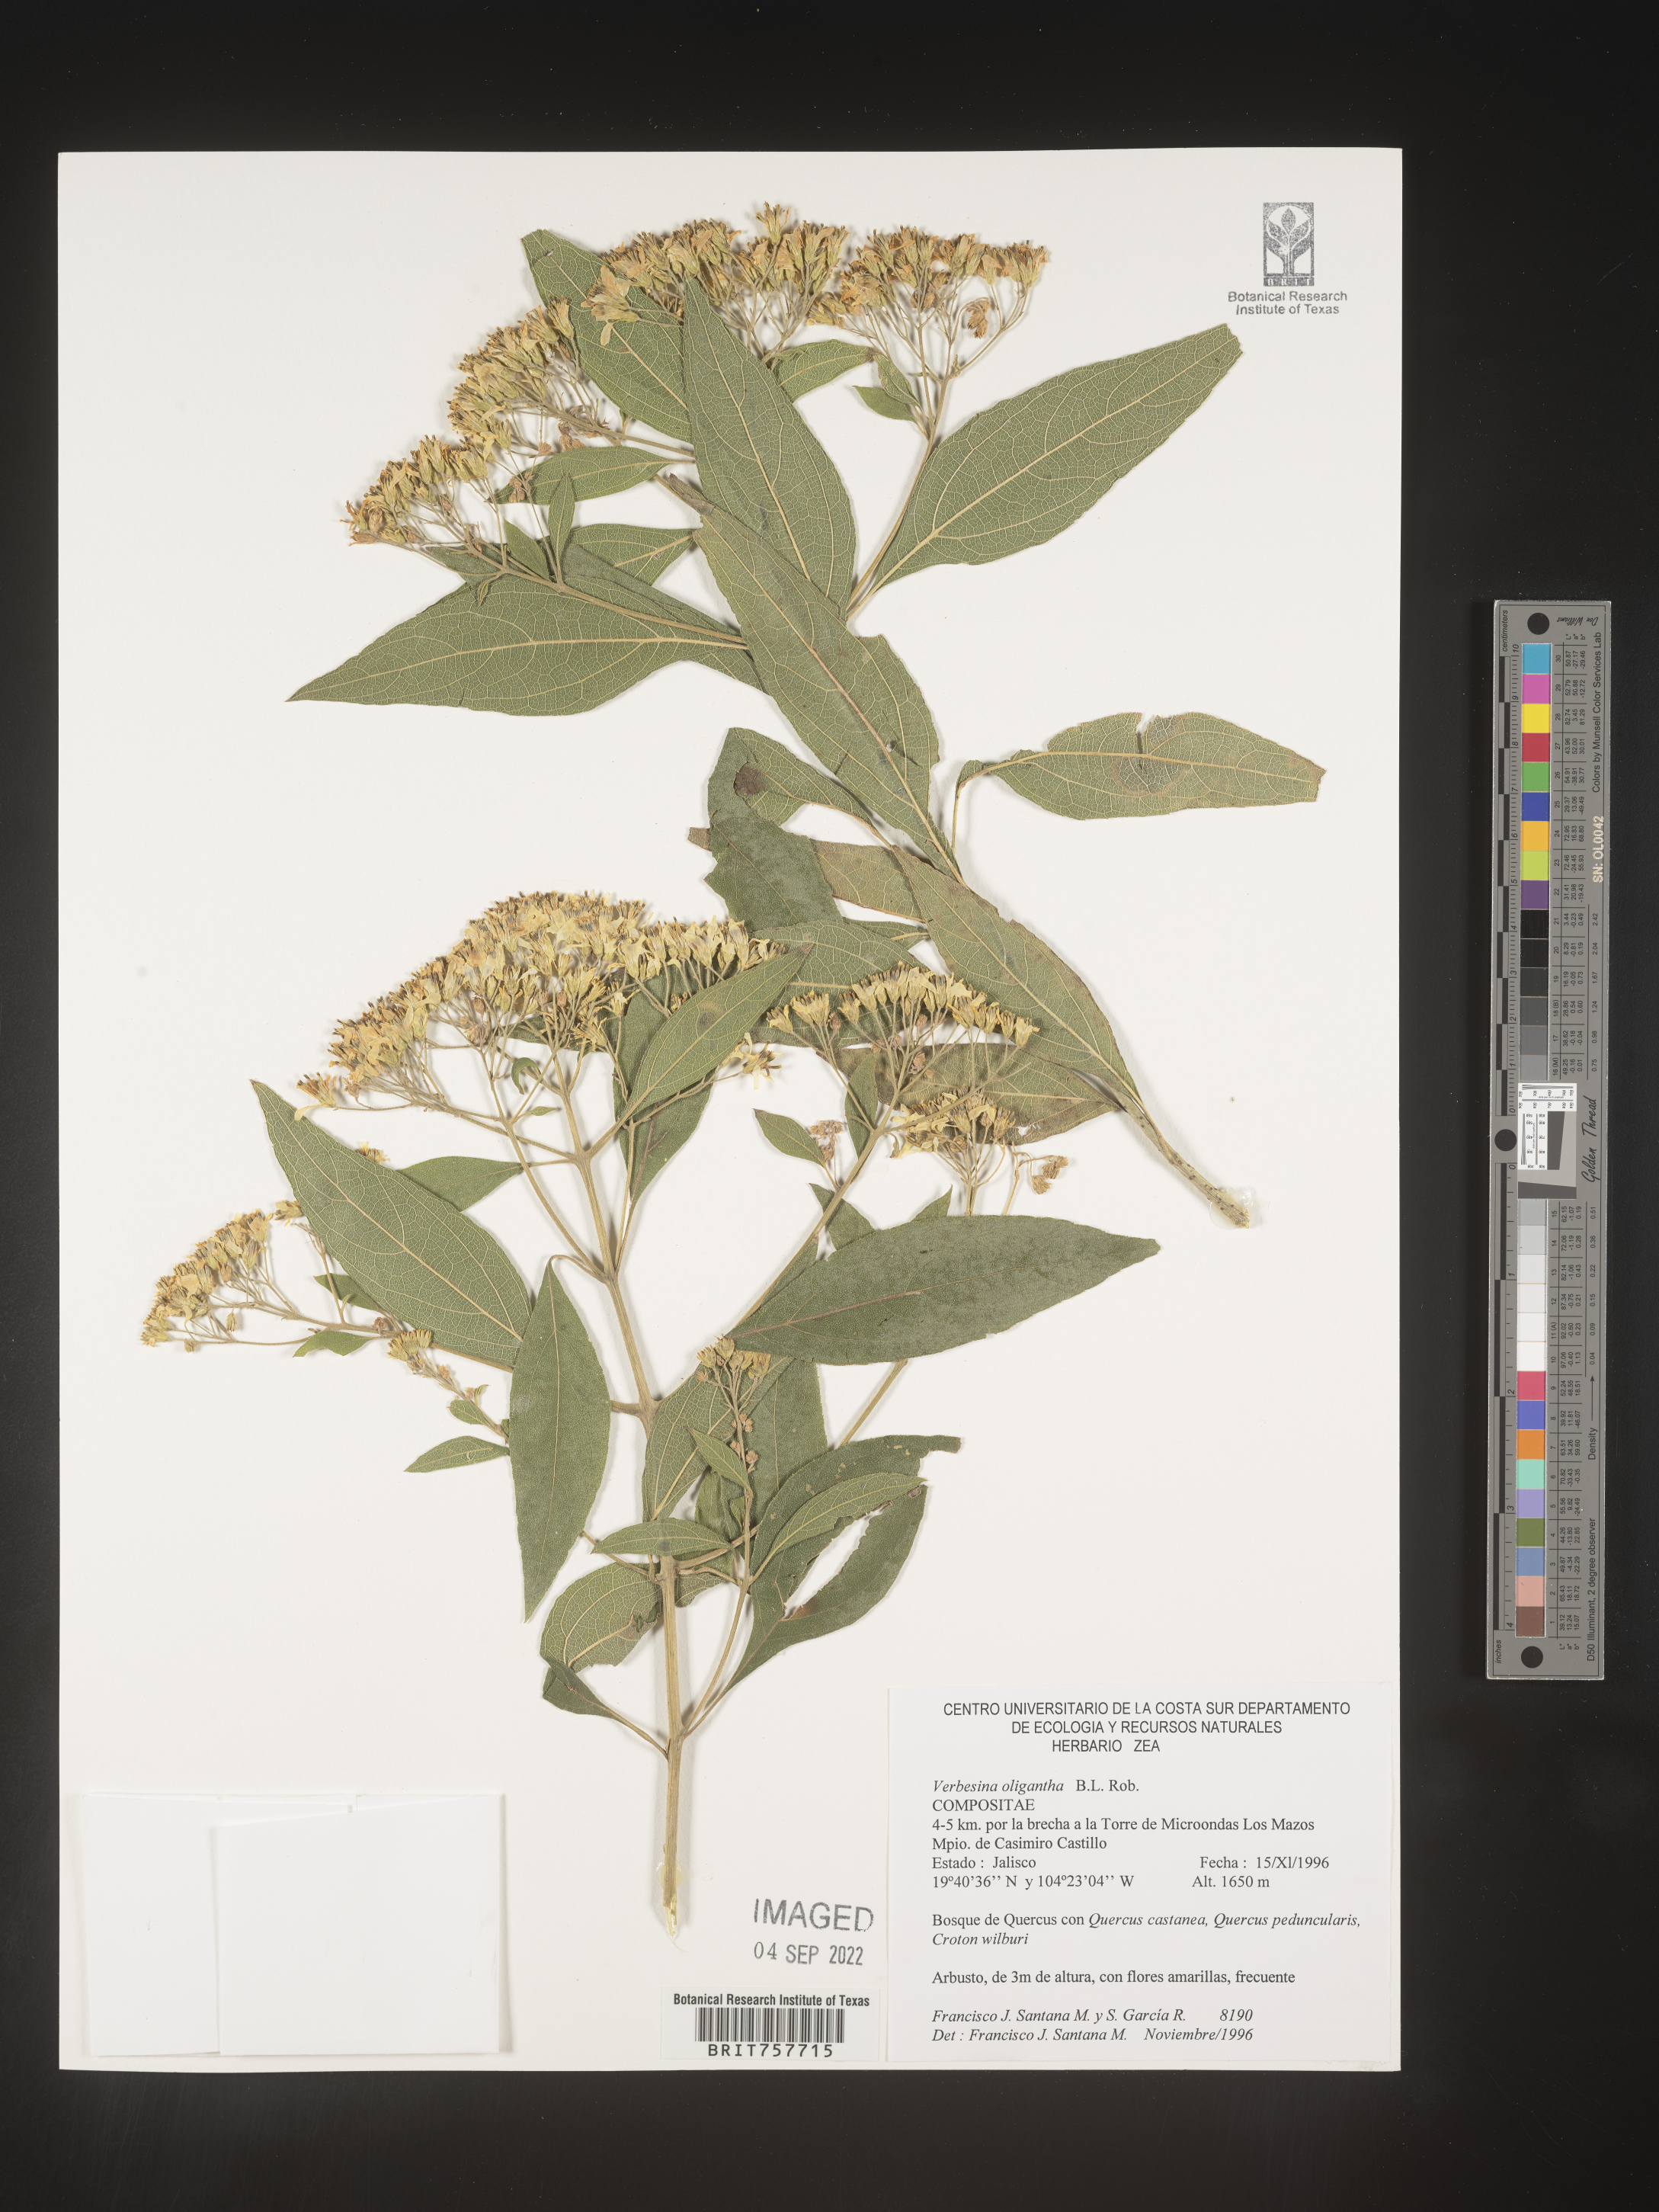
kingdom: Plantae
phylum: Tracheophyta
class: Magnoliopsida
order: Asterales
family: Asteraceae
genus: Verbesina
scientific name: Verbesina
